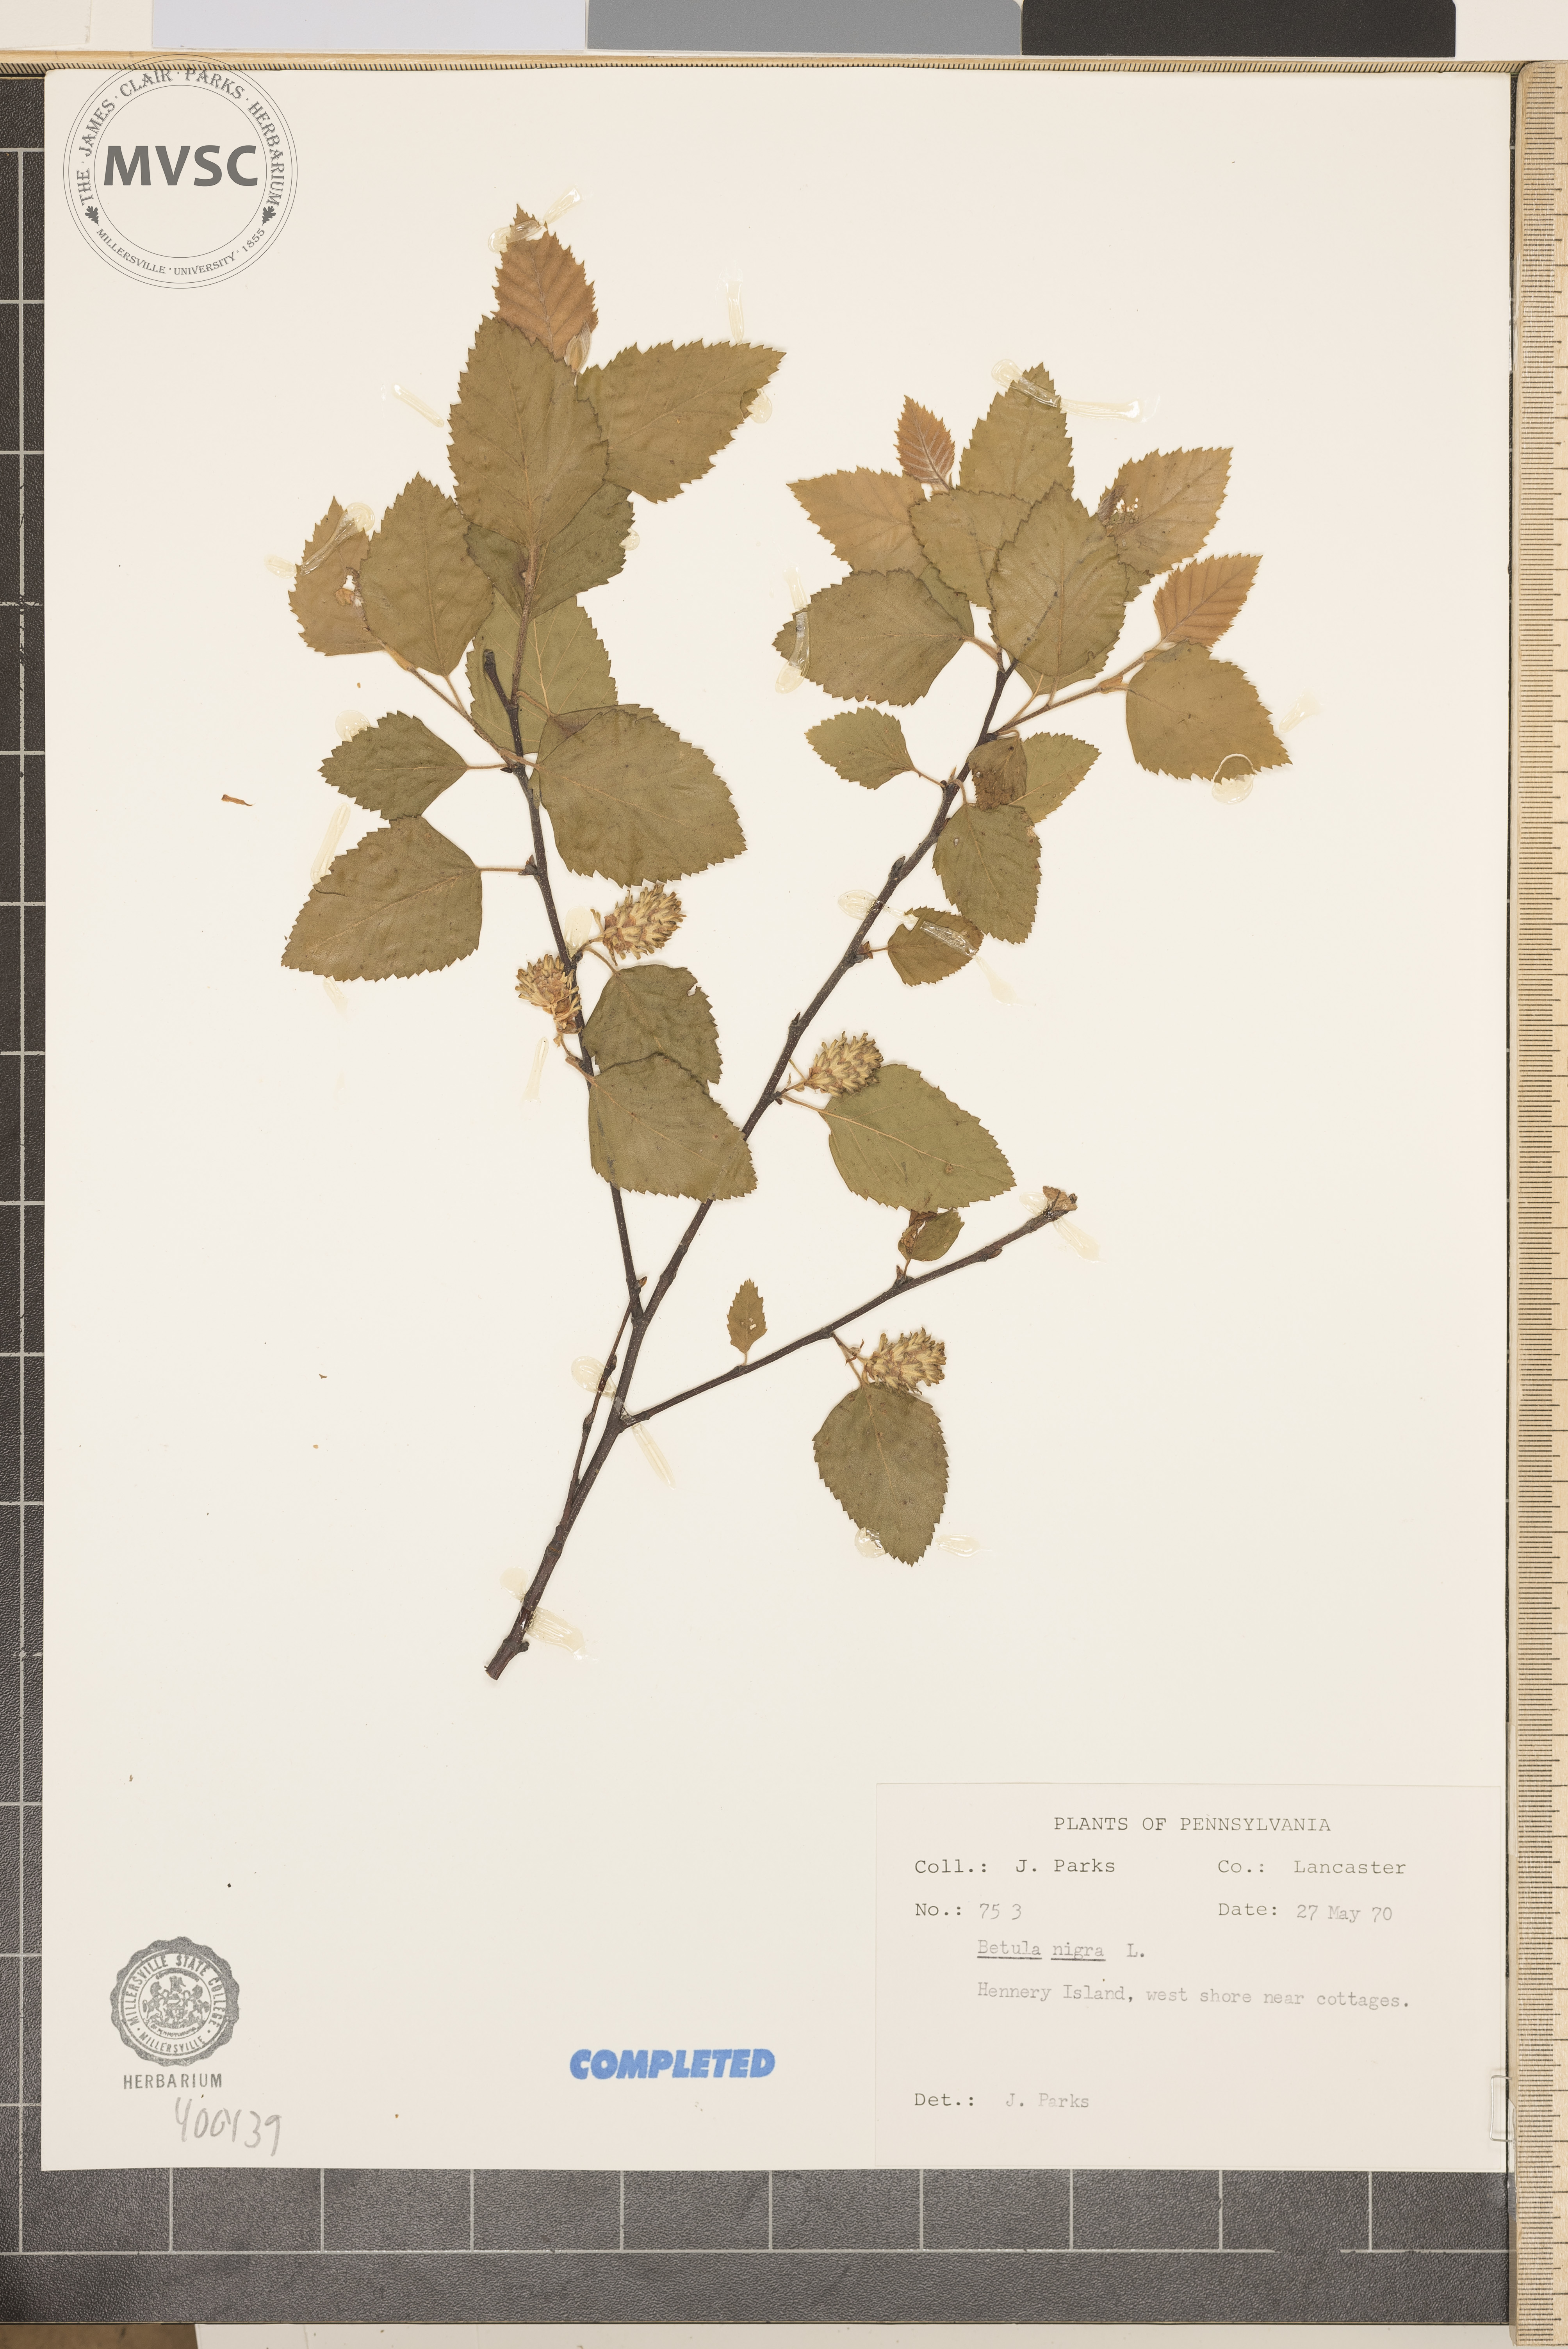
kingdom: Plantae
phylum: Tracheophyta
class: Magnoliopsida
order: Fagales
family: Betulaceae
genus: Betula
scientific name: Betula nigra
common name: river birch
